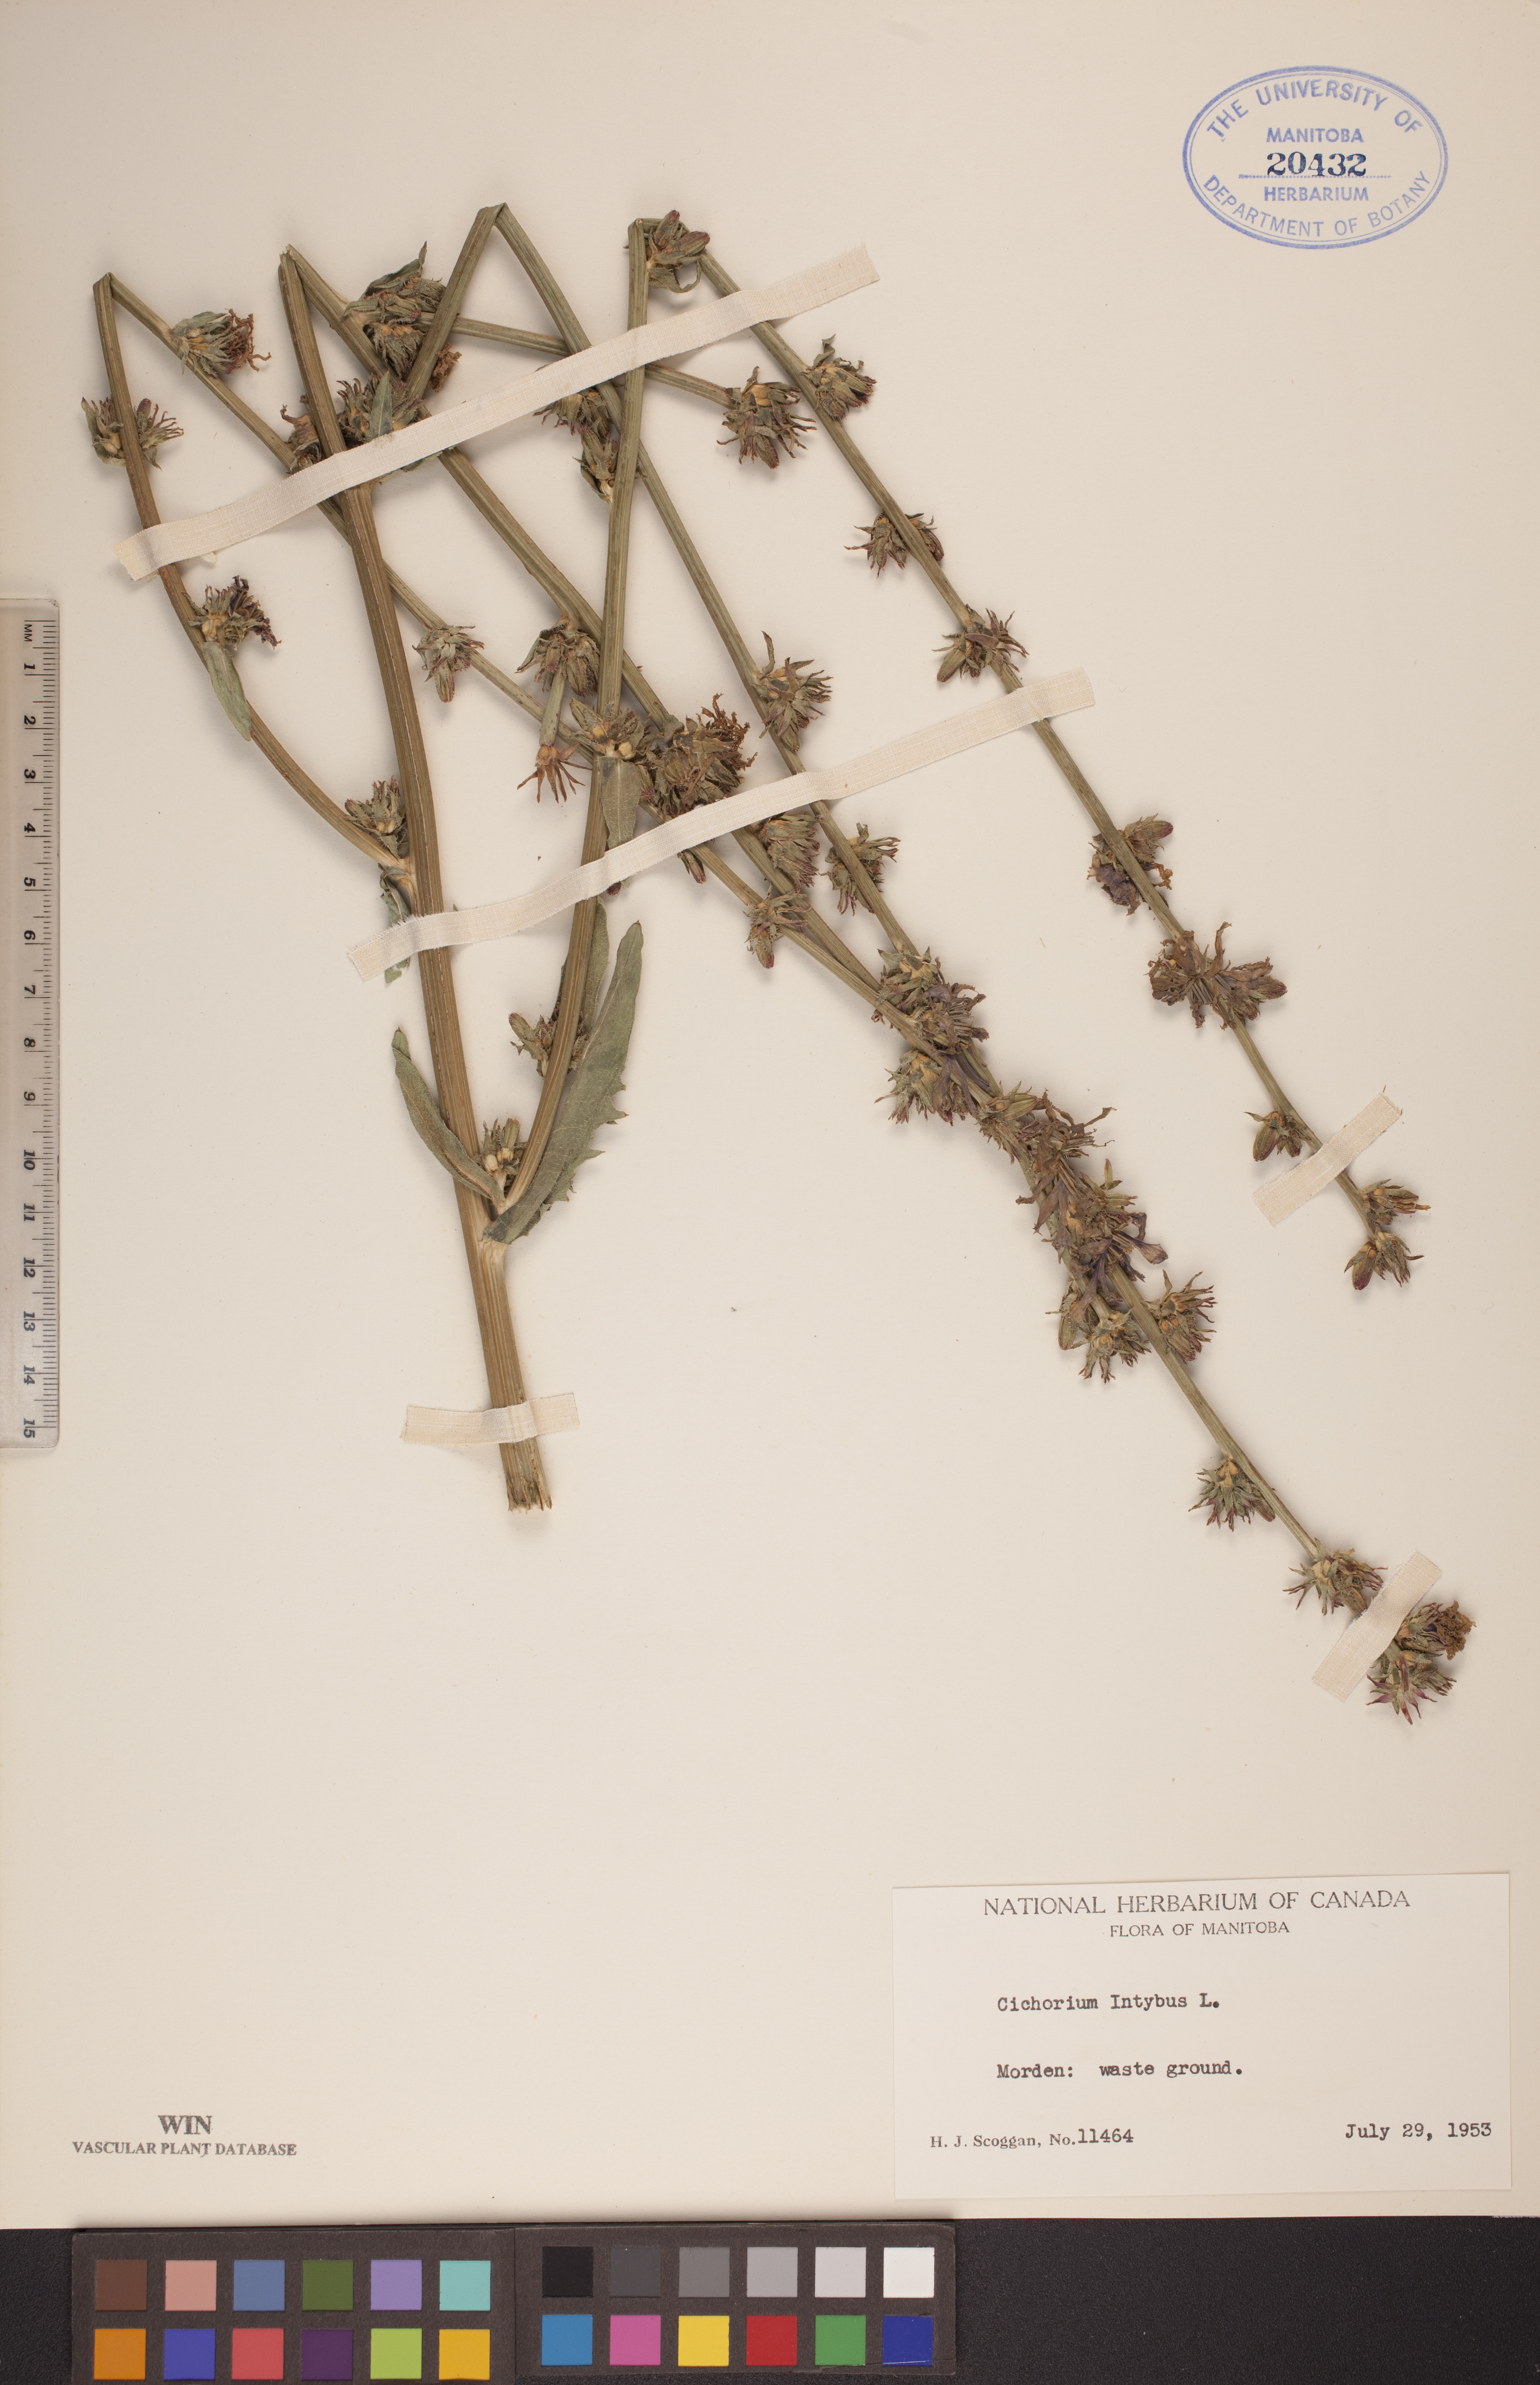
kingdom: Plantae
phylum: Tracheophyta
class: Magnoliopsida
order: Asterales
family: Asteraceae
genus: Cichorium
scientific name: Cichorium intybus
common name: Chicory
